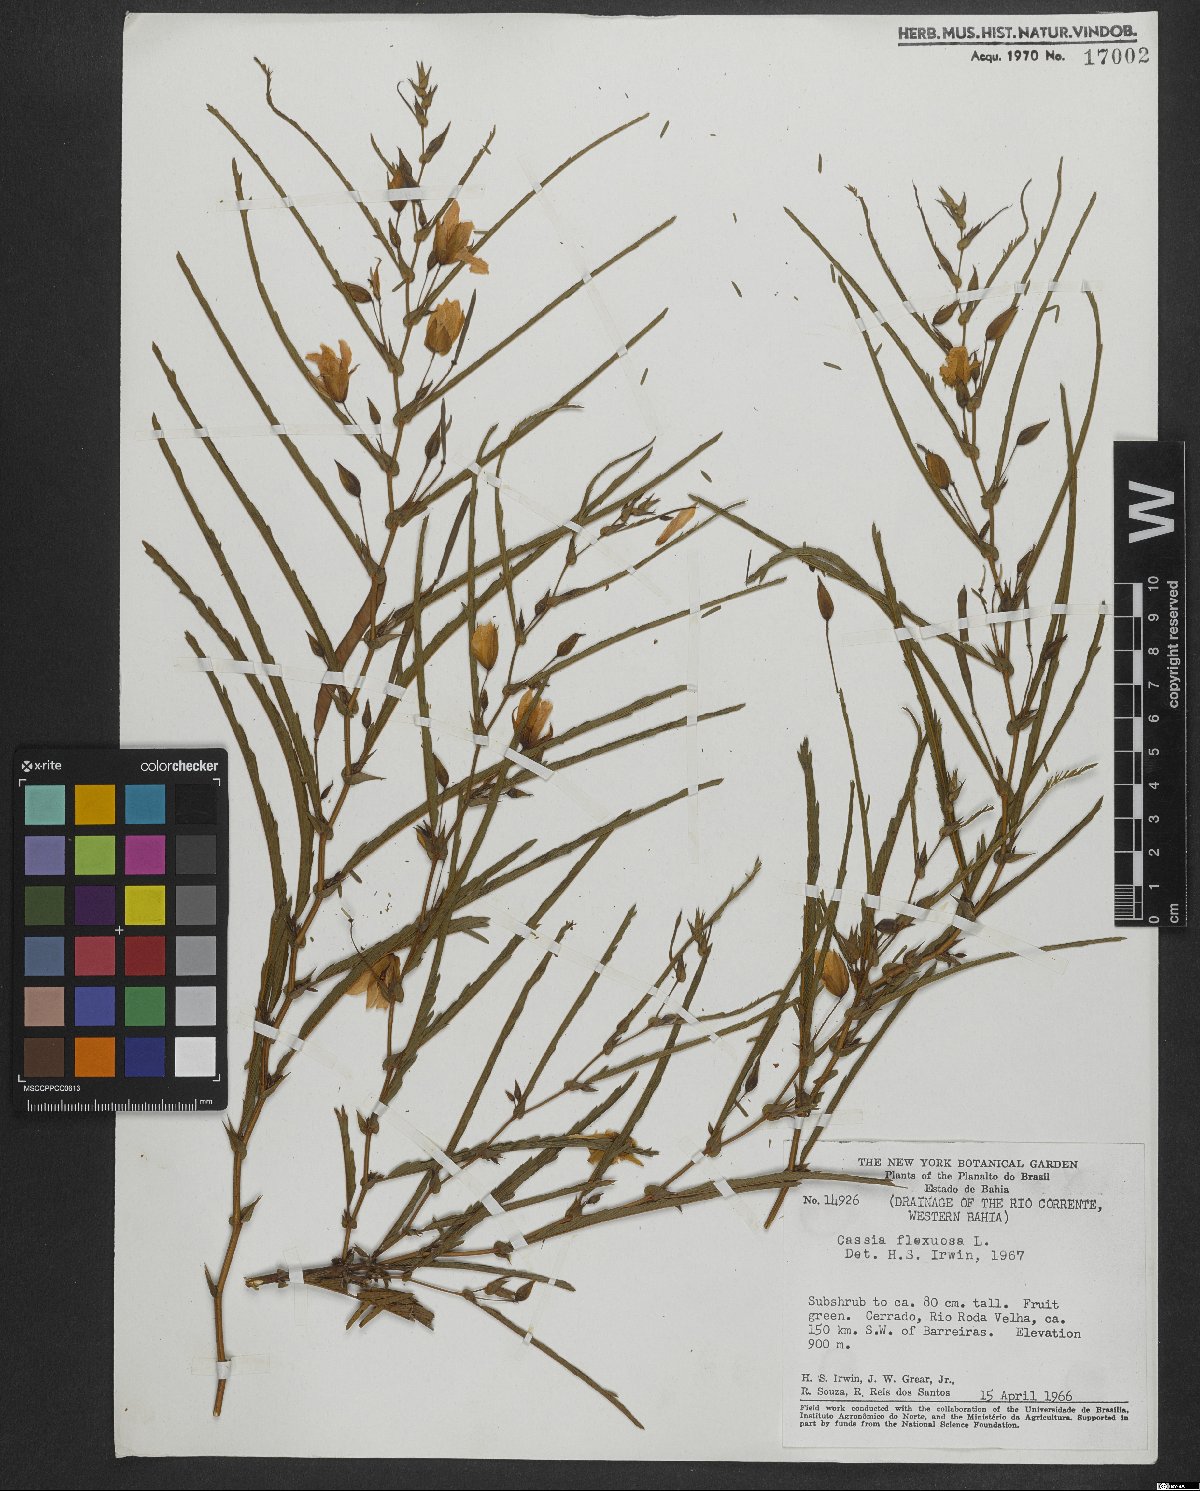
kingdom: Plantae
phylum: Tracheophyta
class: Magnoliopsida
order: Fabales
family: Fabaceae
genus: Chamaecrista
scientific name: Chamaecrista flexuosa
